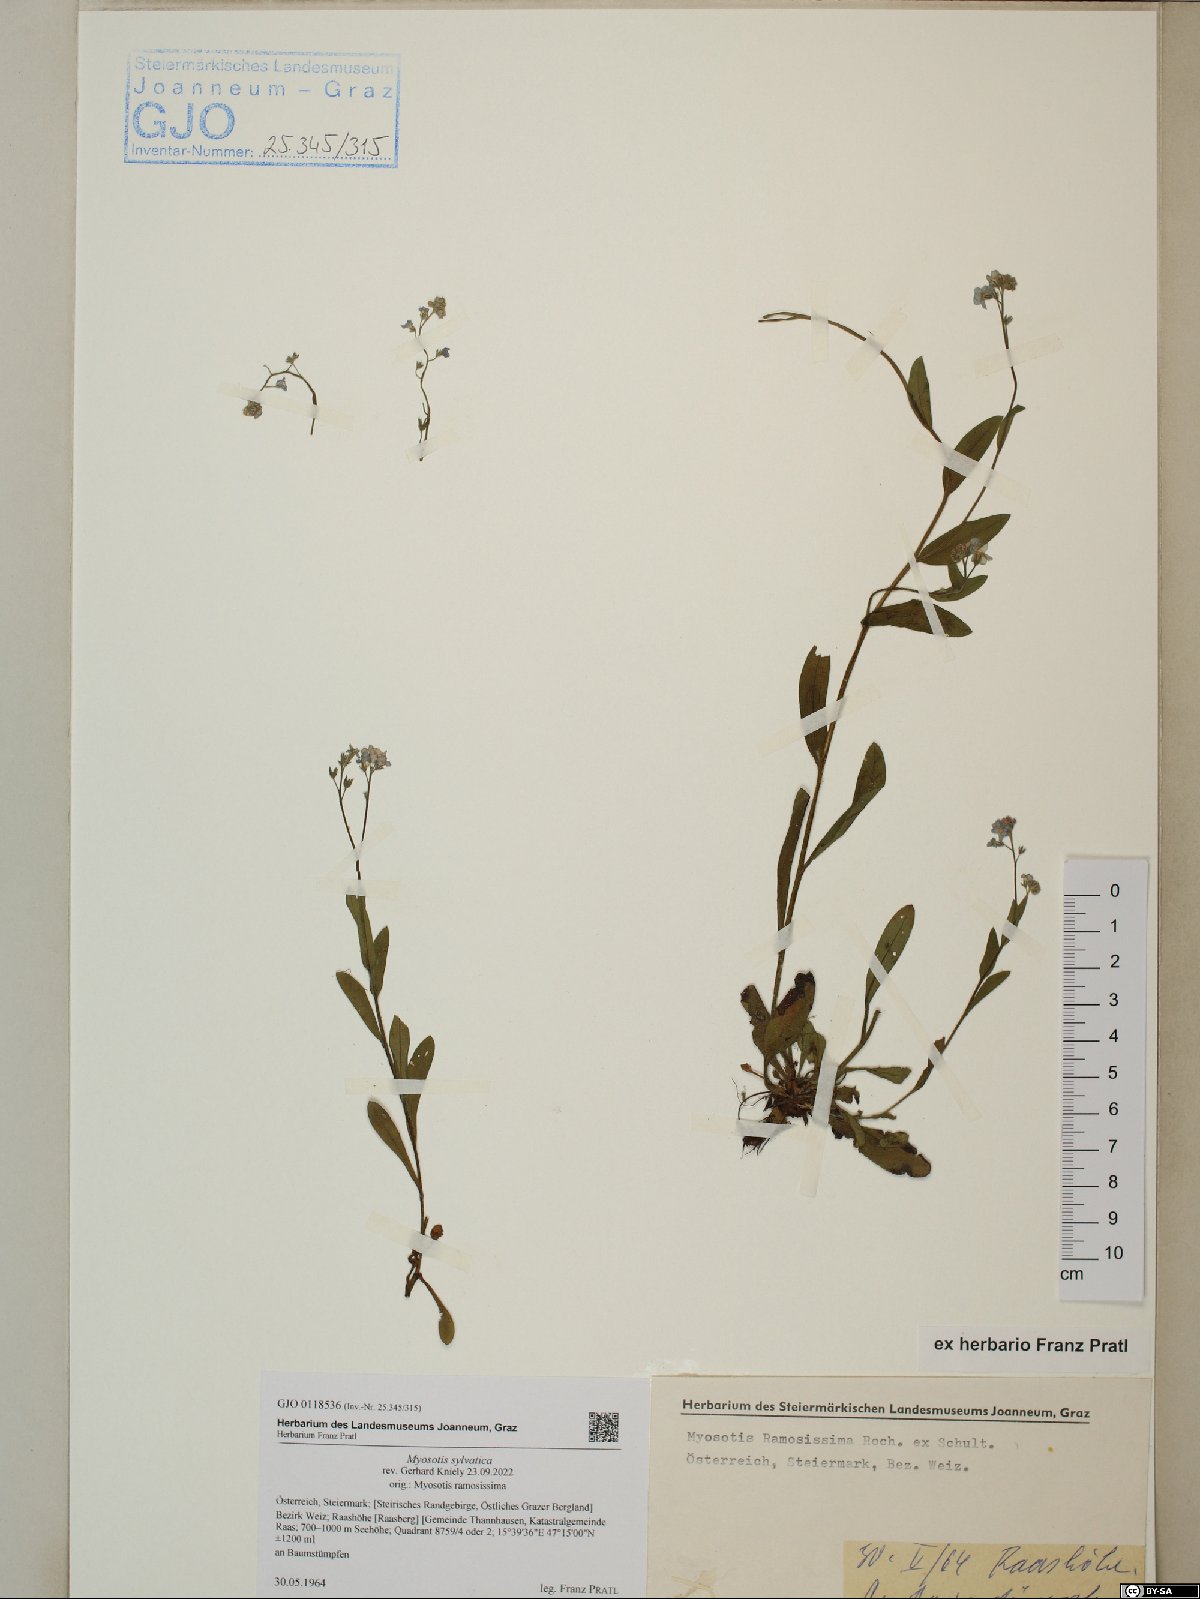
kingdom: Plantae
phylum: Tracheophyta
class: Magnoliopsida
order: Boraginales
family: Boraginaceae
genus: Myosotis
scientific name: Myosotis sylvatica
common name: Wood forget-me-not
